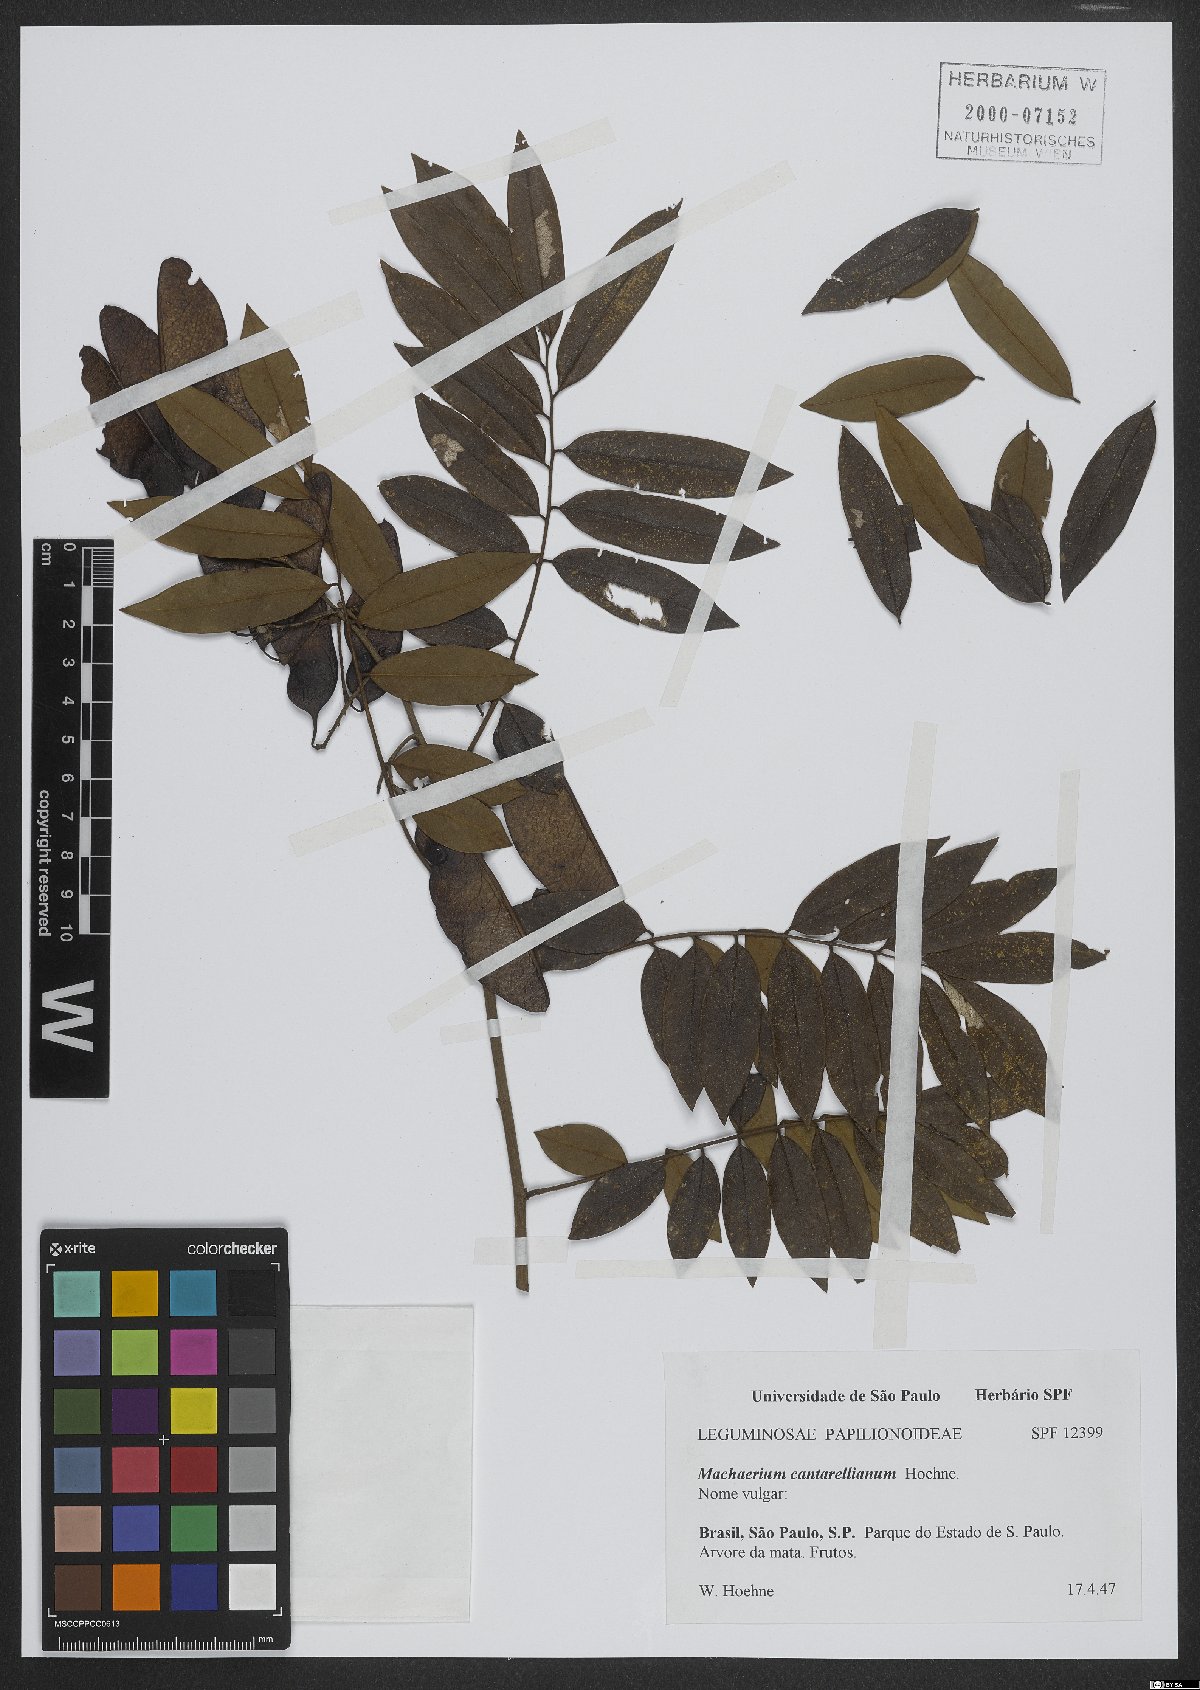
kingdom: Plantae
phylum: Tracheophyta
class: Magnoliopsida
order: Fabales
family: Fabaceae
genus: Machaerium
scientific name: Machaerium cantarellianum
